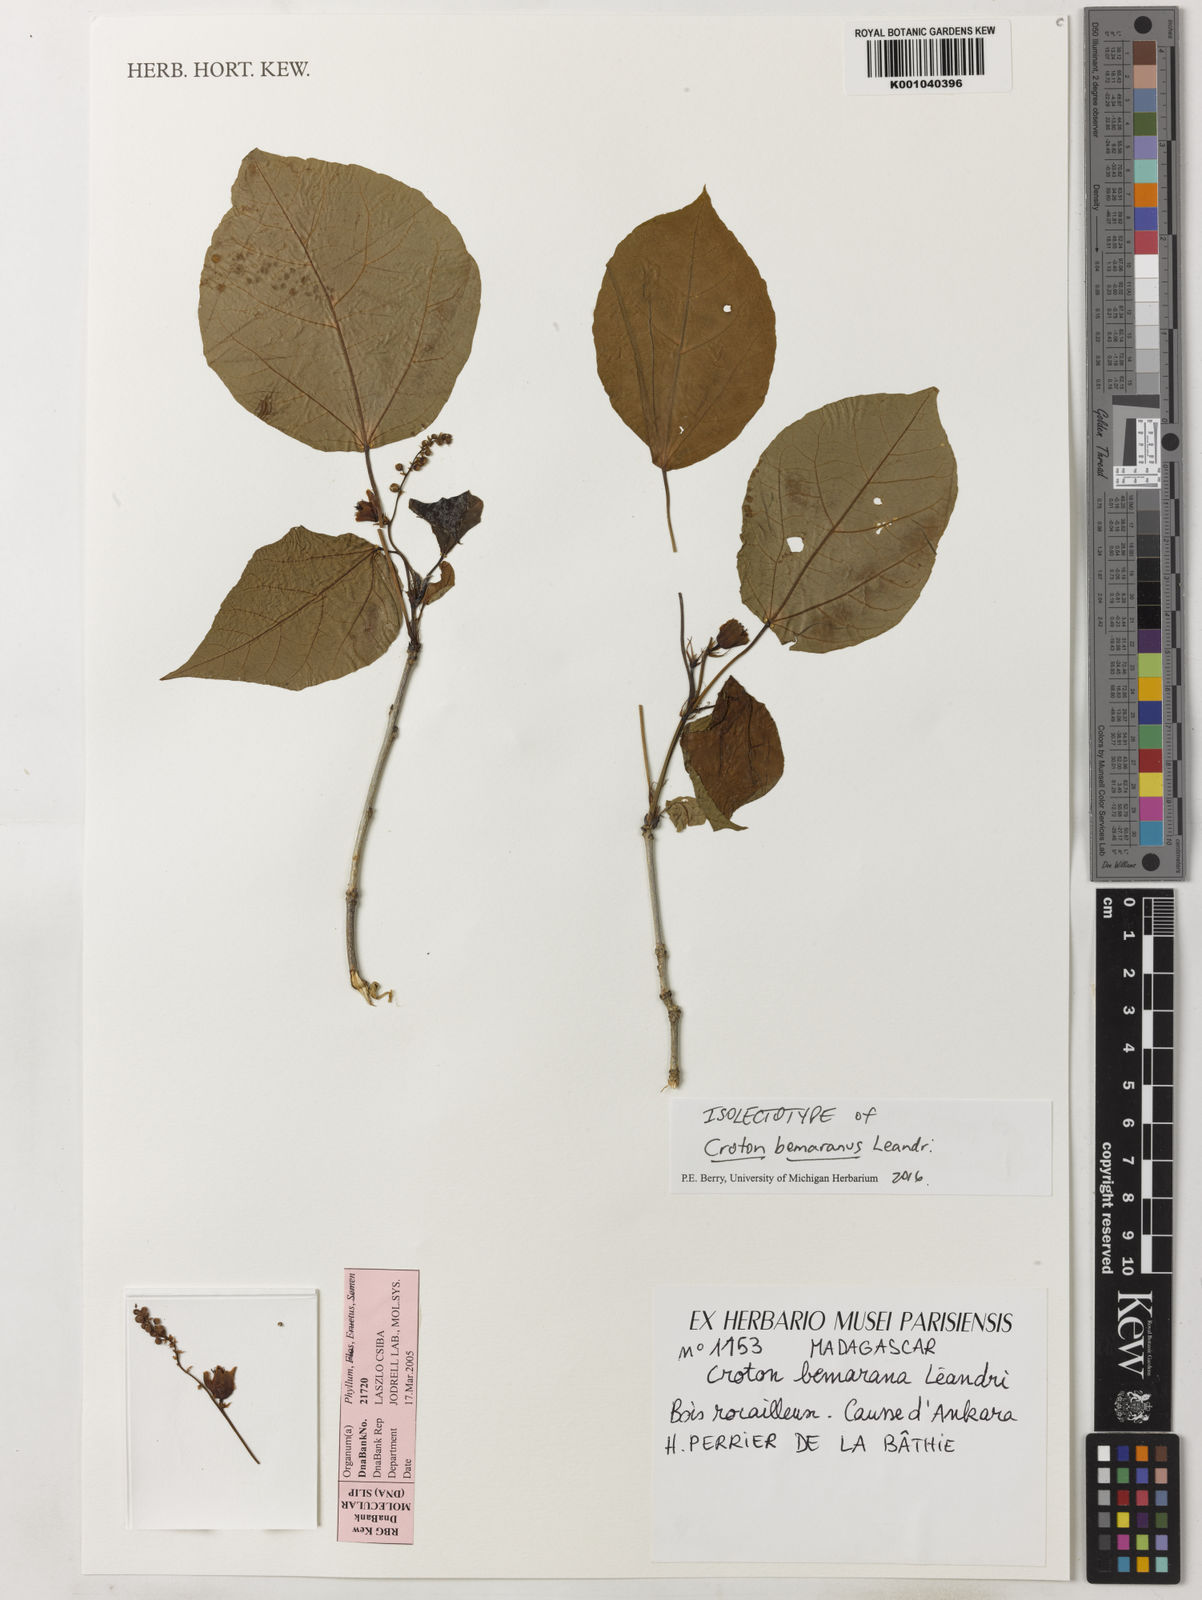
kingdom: Plantae
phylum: Tracheophyta
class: Magnoliopsida
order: Malpighiales
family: Euphorbiaceae
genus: Croton
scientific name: Croton bemaranus
